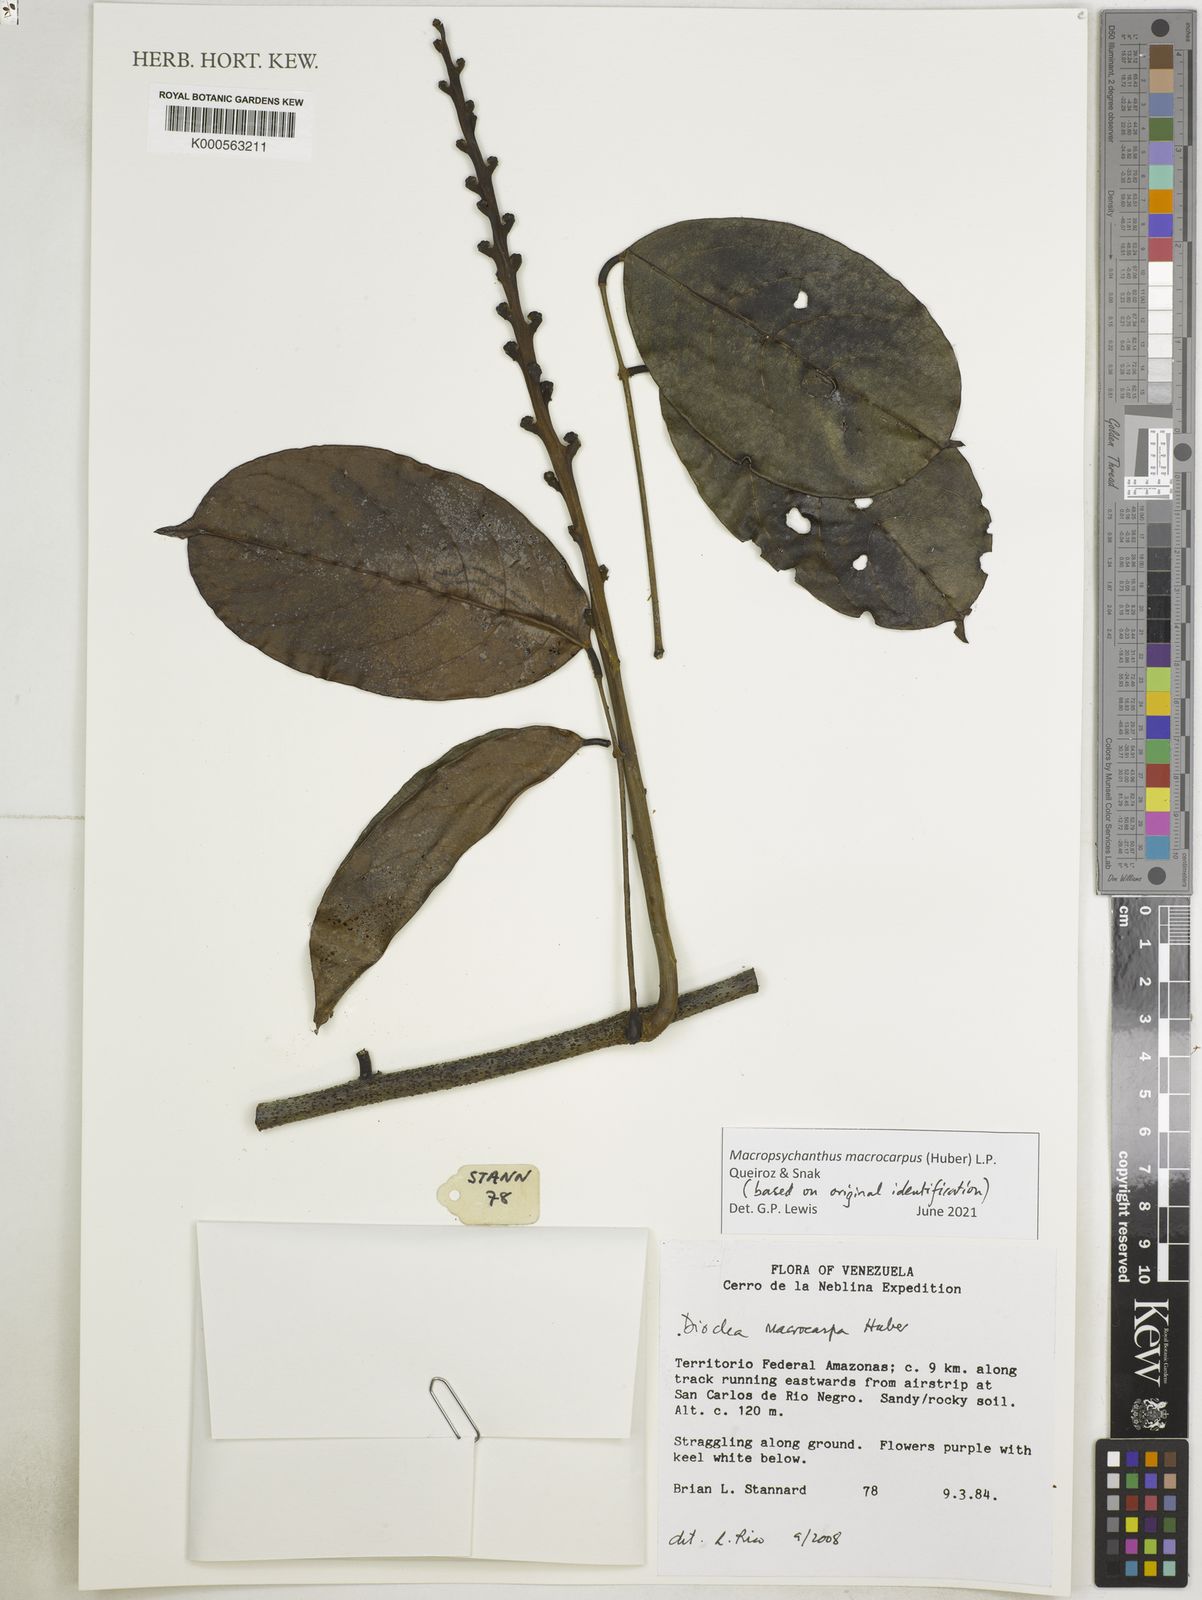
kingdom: Plantae
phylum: Tracheophyta
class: Magnoliopsida
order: Fabales
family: Fabaceae
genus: Macropsychanthus
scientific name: Macropsychanthus macrocarpus
